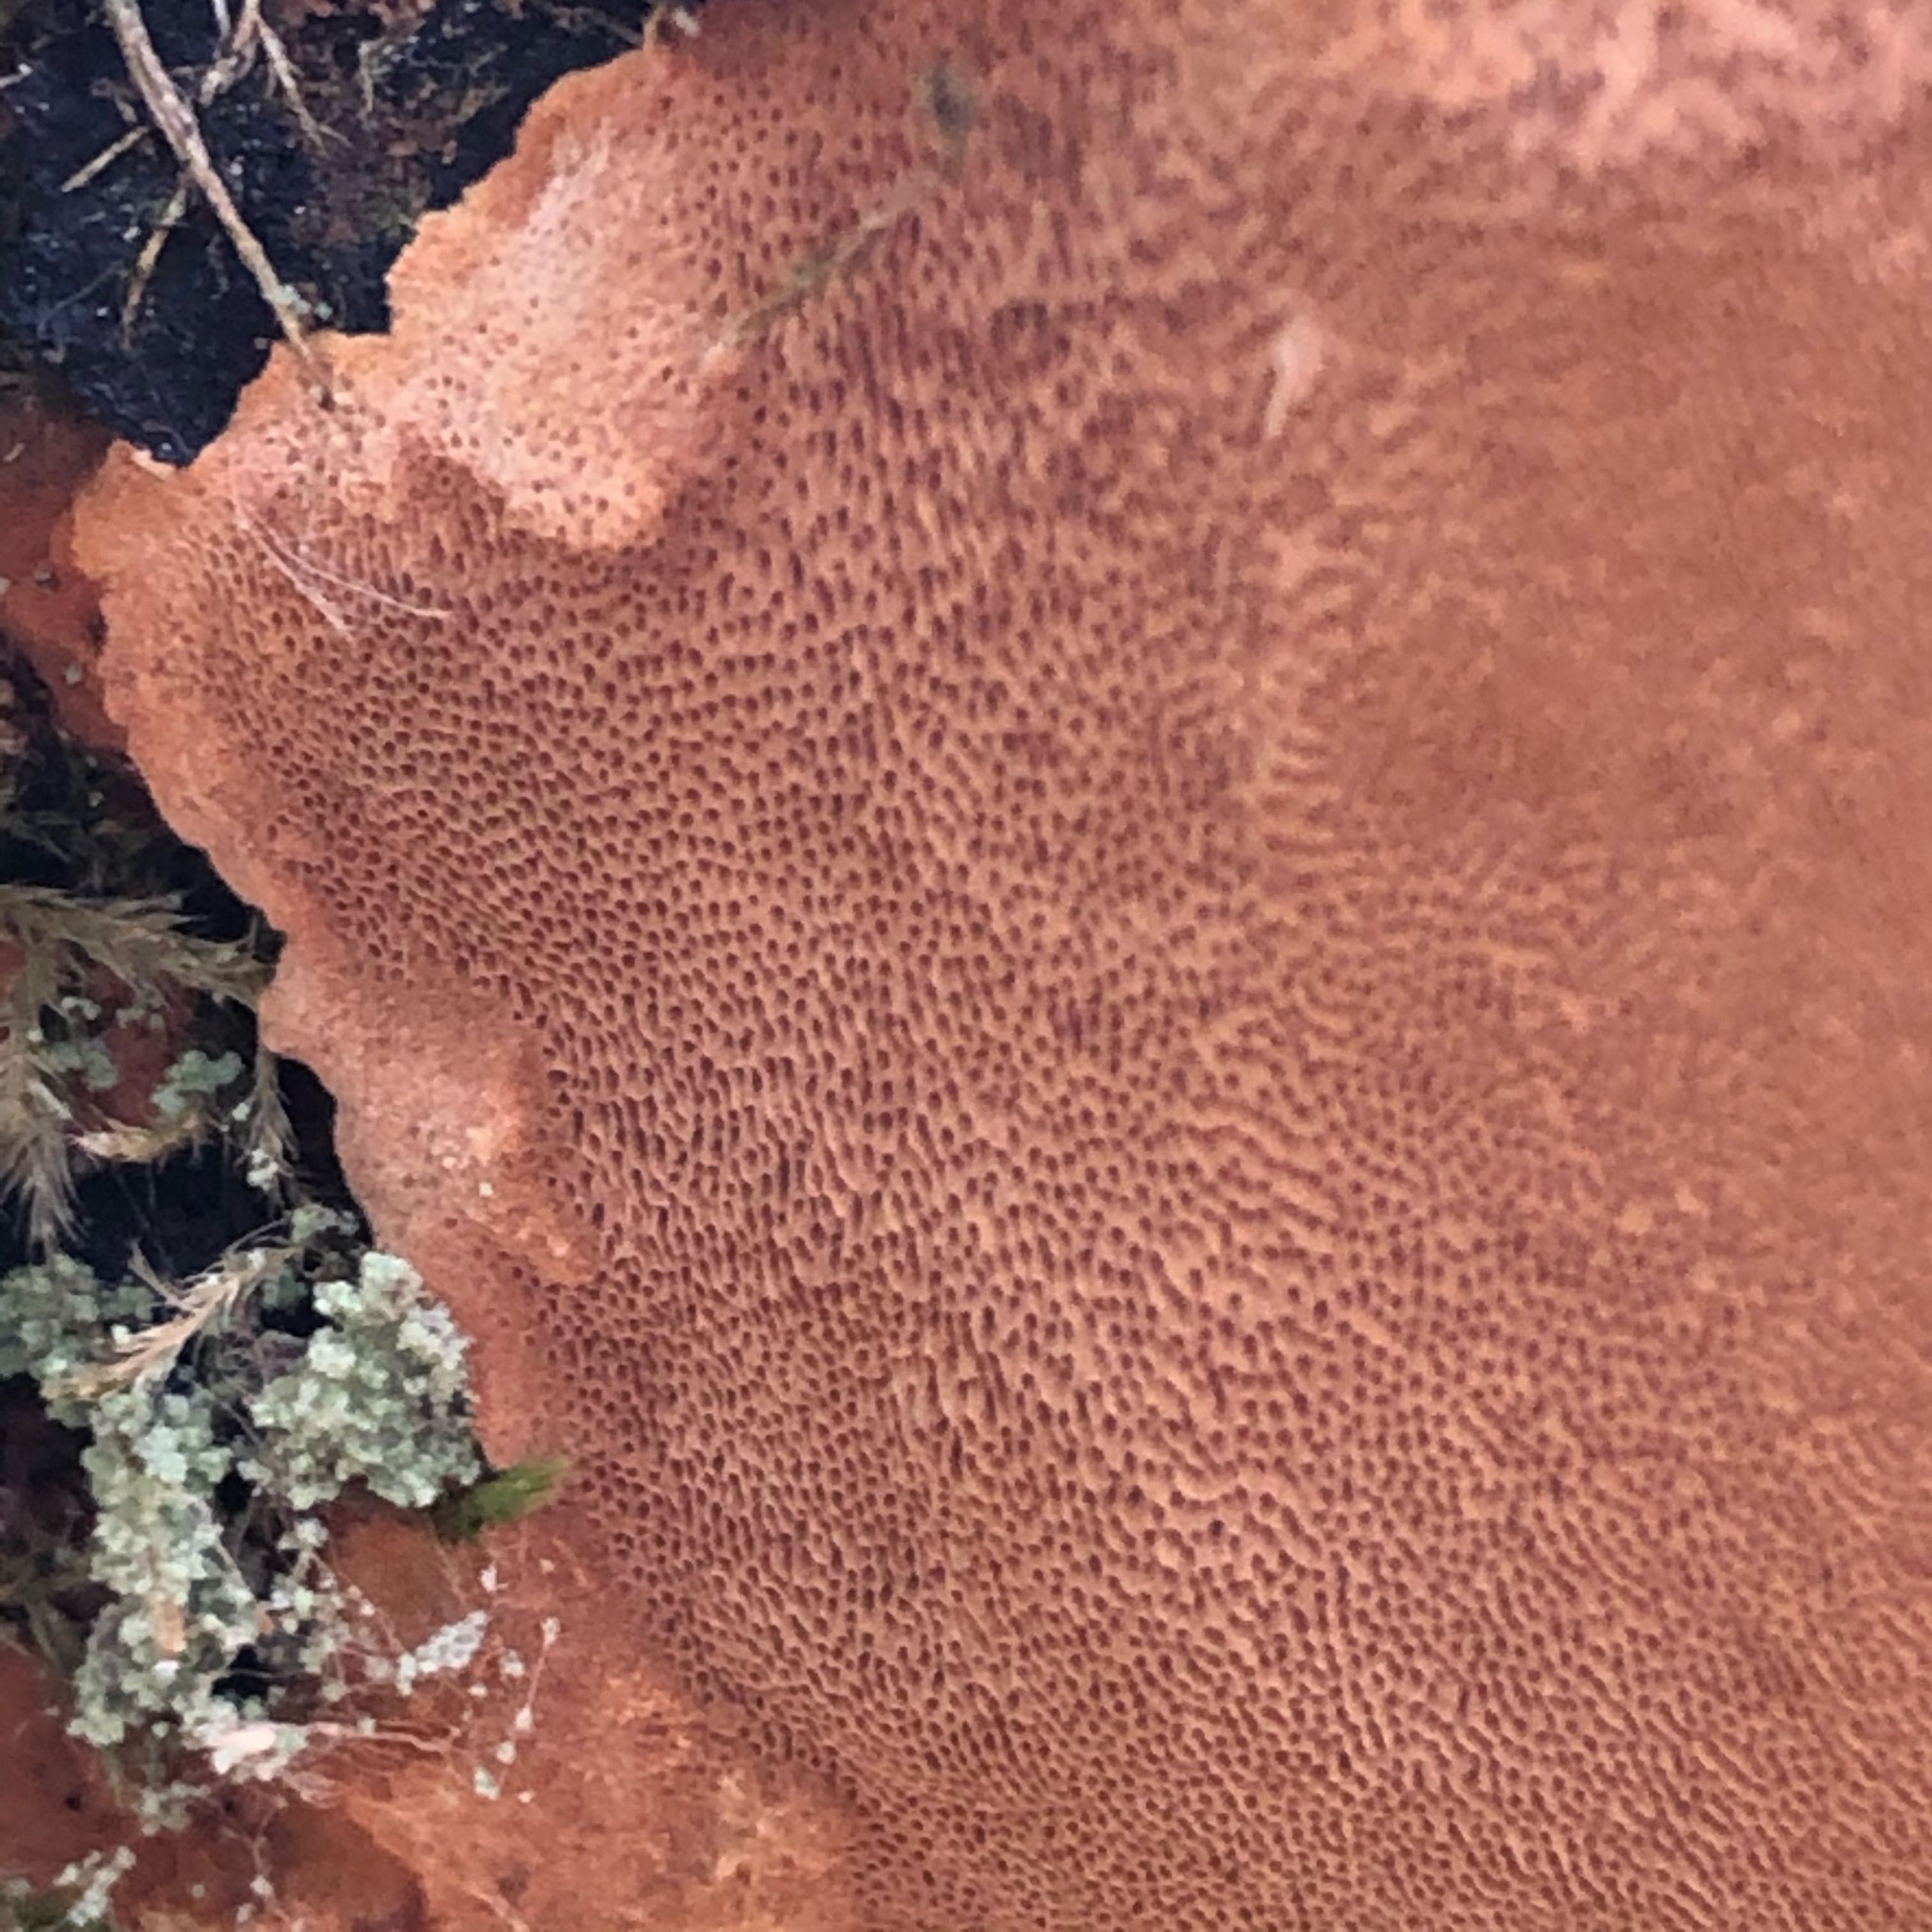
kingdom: Fungi
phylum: Basidiomycota
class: Agaricomycetes
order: Hymenochaetales
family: Hymenochaetaceae
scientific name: Hymenochaetaceae
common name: børstesvampfamilien
